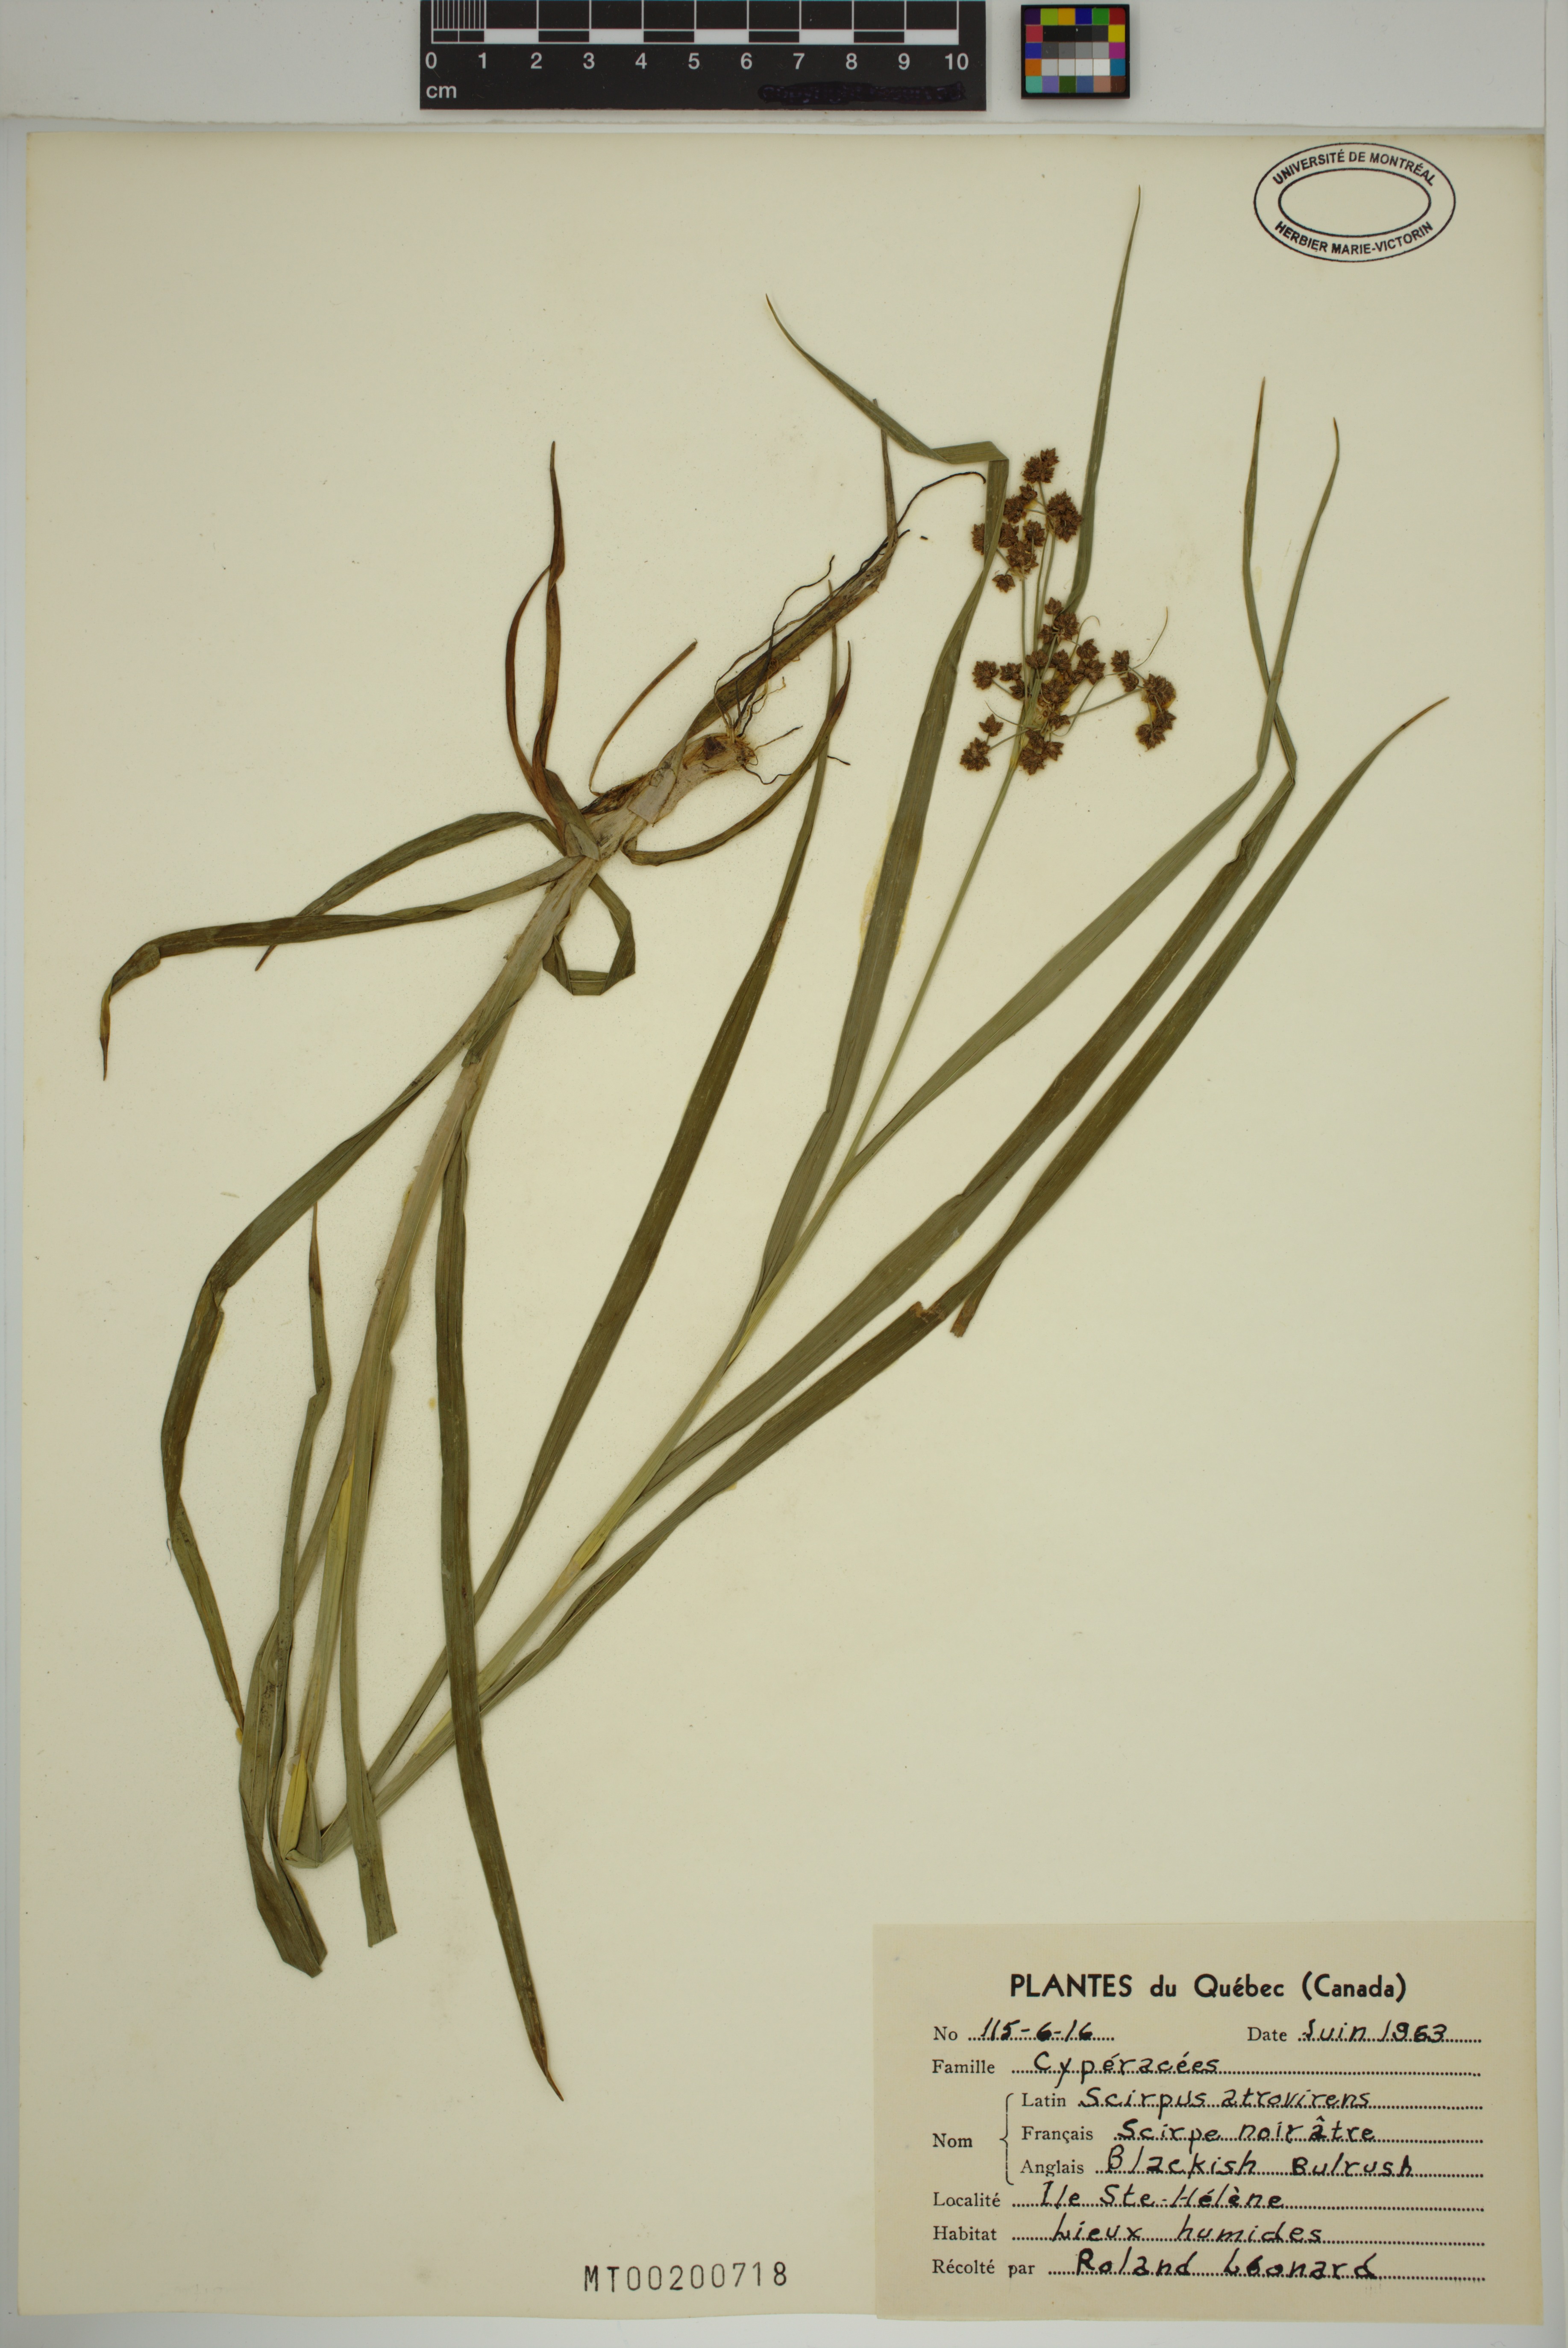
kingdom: Plantae
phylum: Tracheophyta
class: Liliopsida
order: Poales
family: Cyperaceae
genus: Scirpus
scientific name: Scirpus hattorianus
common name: Early dark-green bulrush
